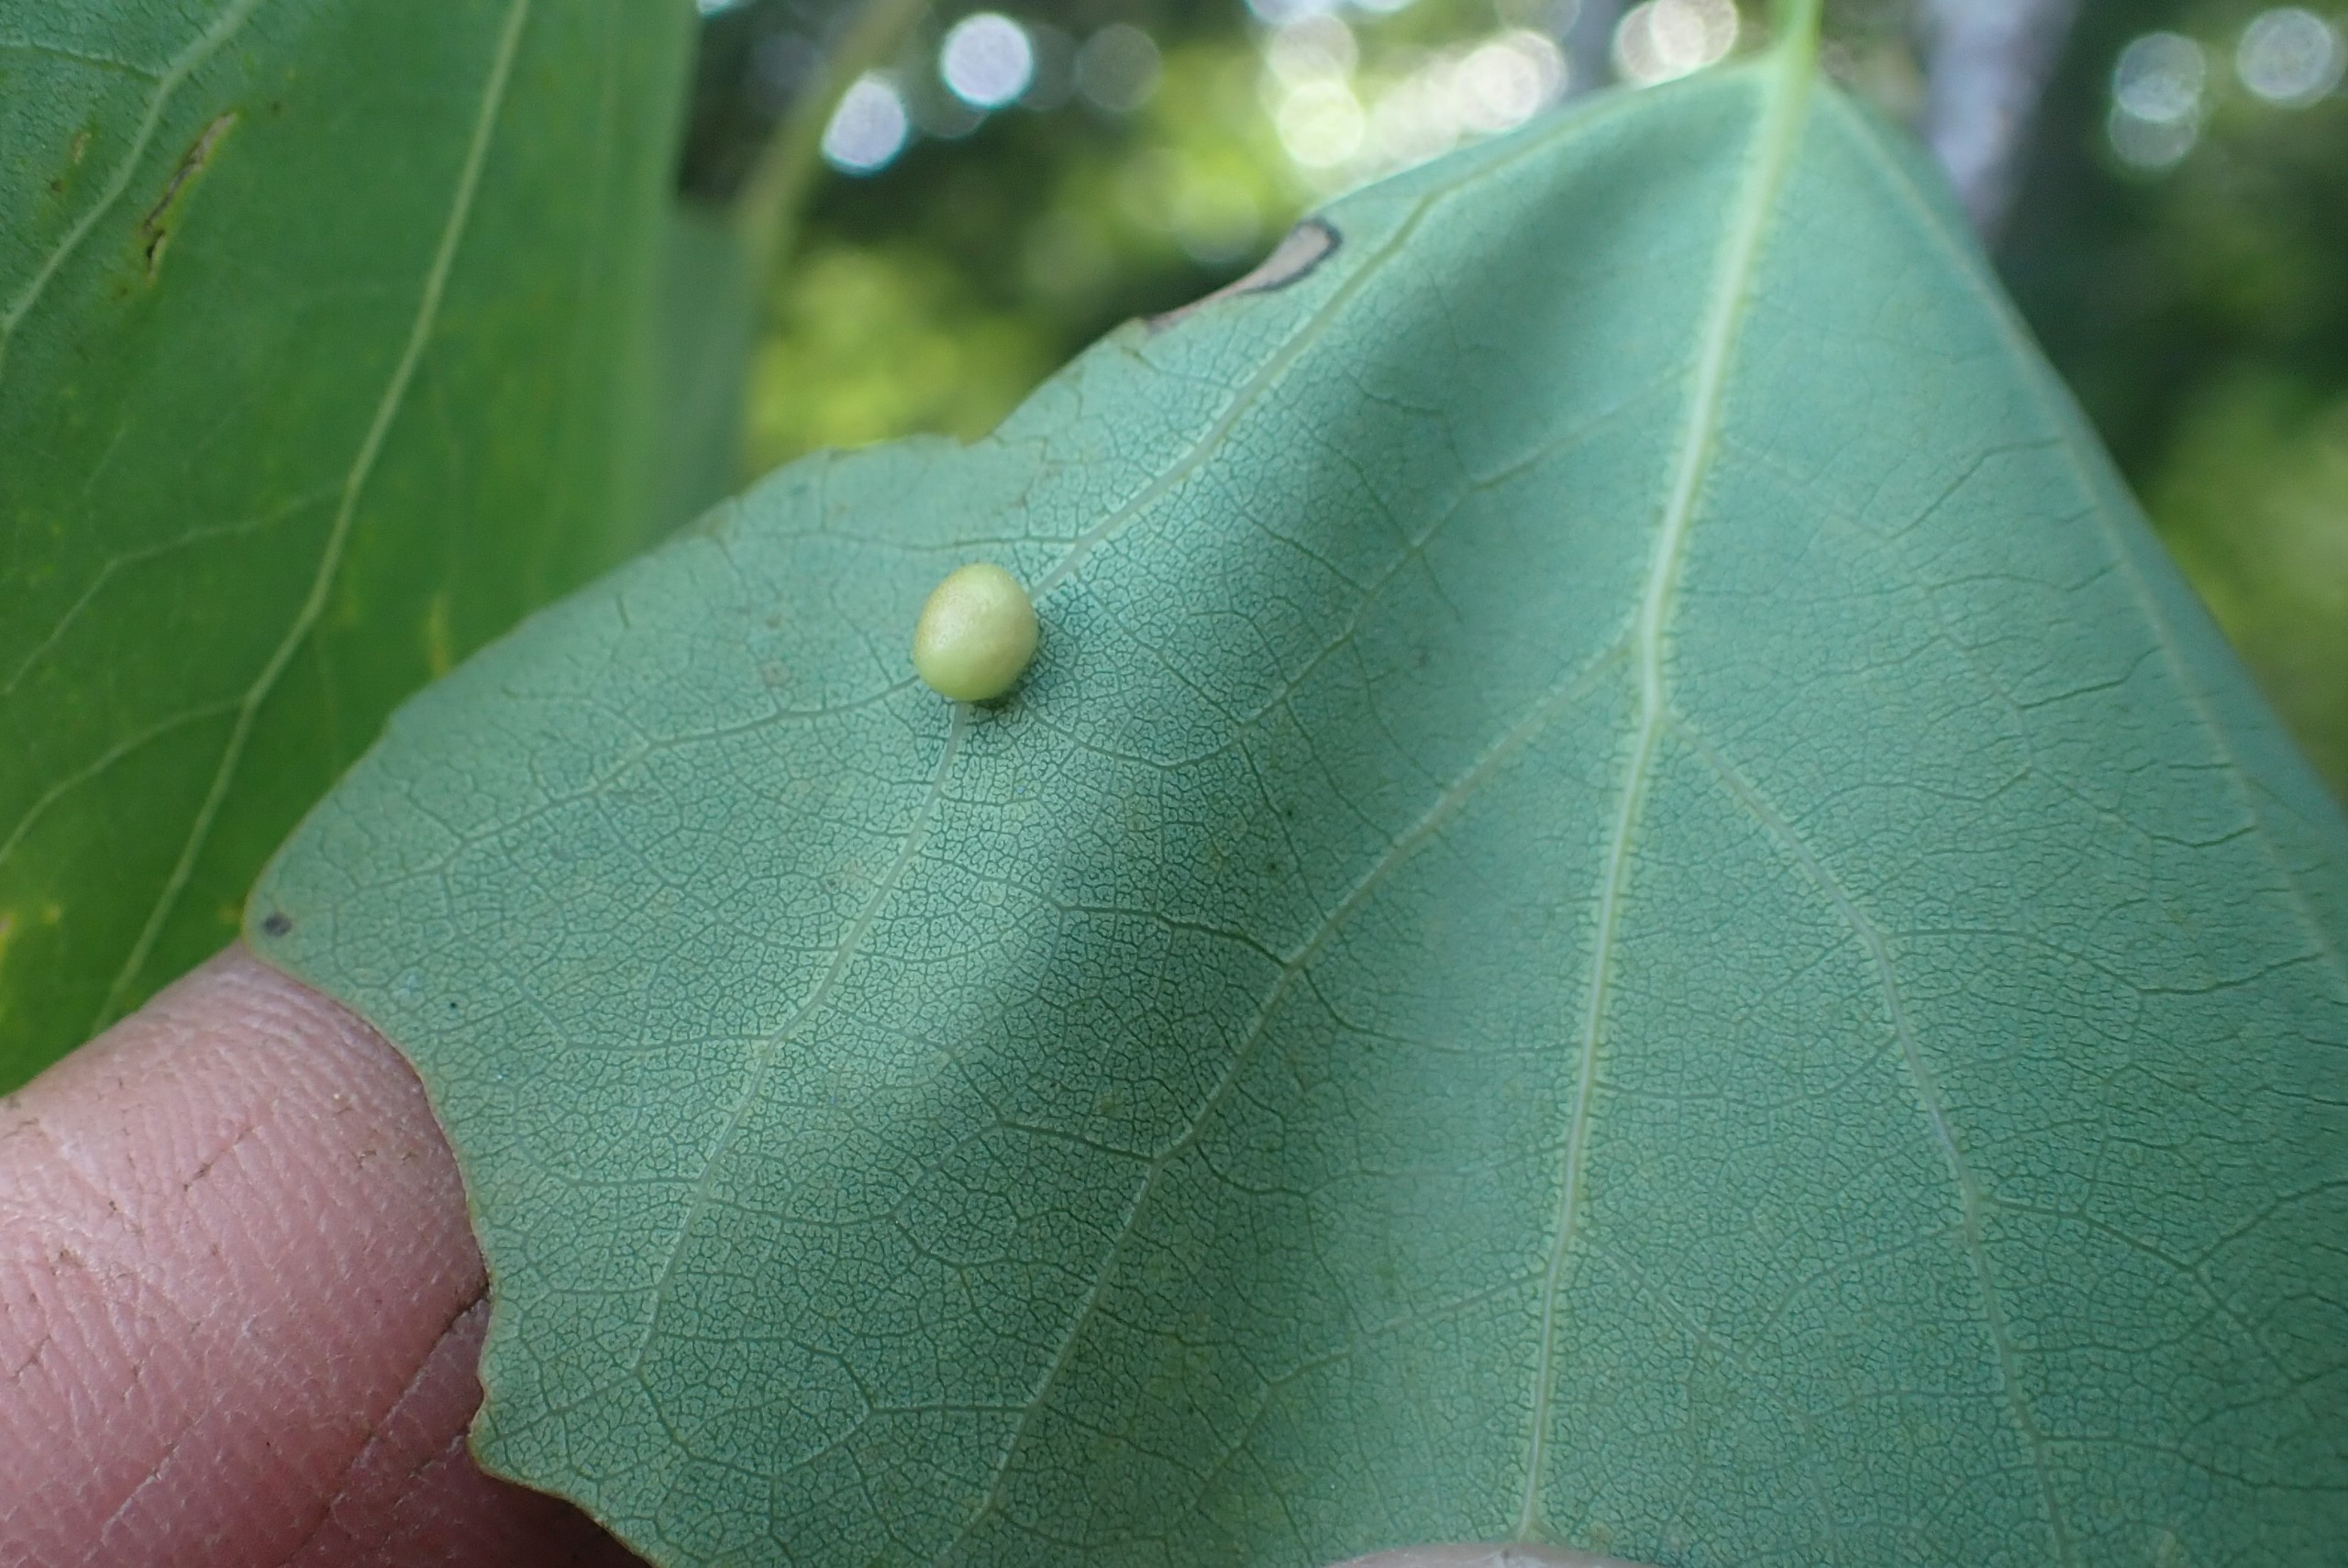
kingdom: Animalia
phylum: Arthropoda
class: Insecta
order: Diptera
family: Cecidomyiidae
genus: Harmandiola
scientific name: Harmandiola cavernosa
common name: Aspepunggalmyg
